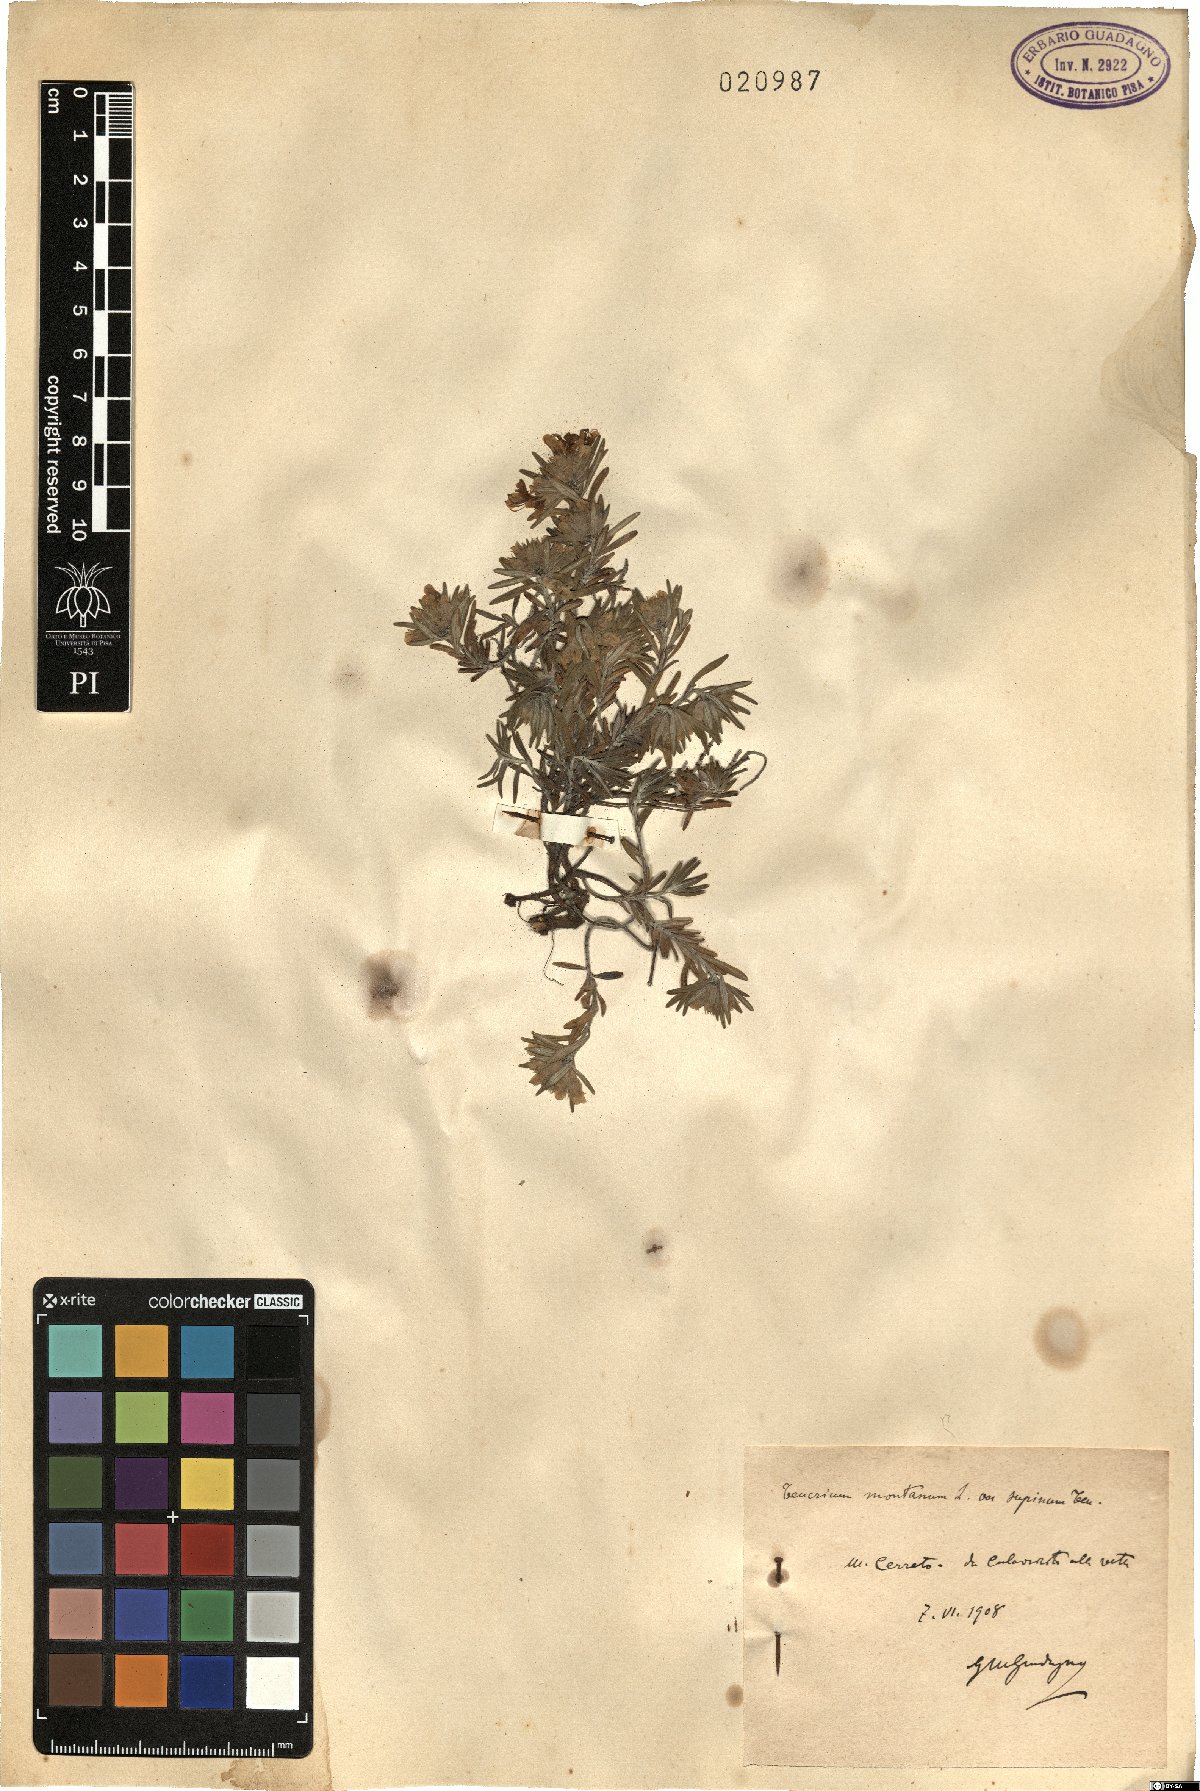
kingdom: Plantae
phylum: Tracheophyta
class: Magnoliopsida
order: Lamiales
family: Lamiaceae
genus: Teucrium
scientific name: Teucrium montanum
